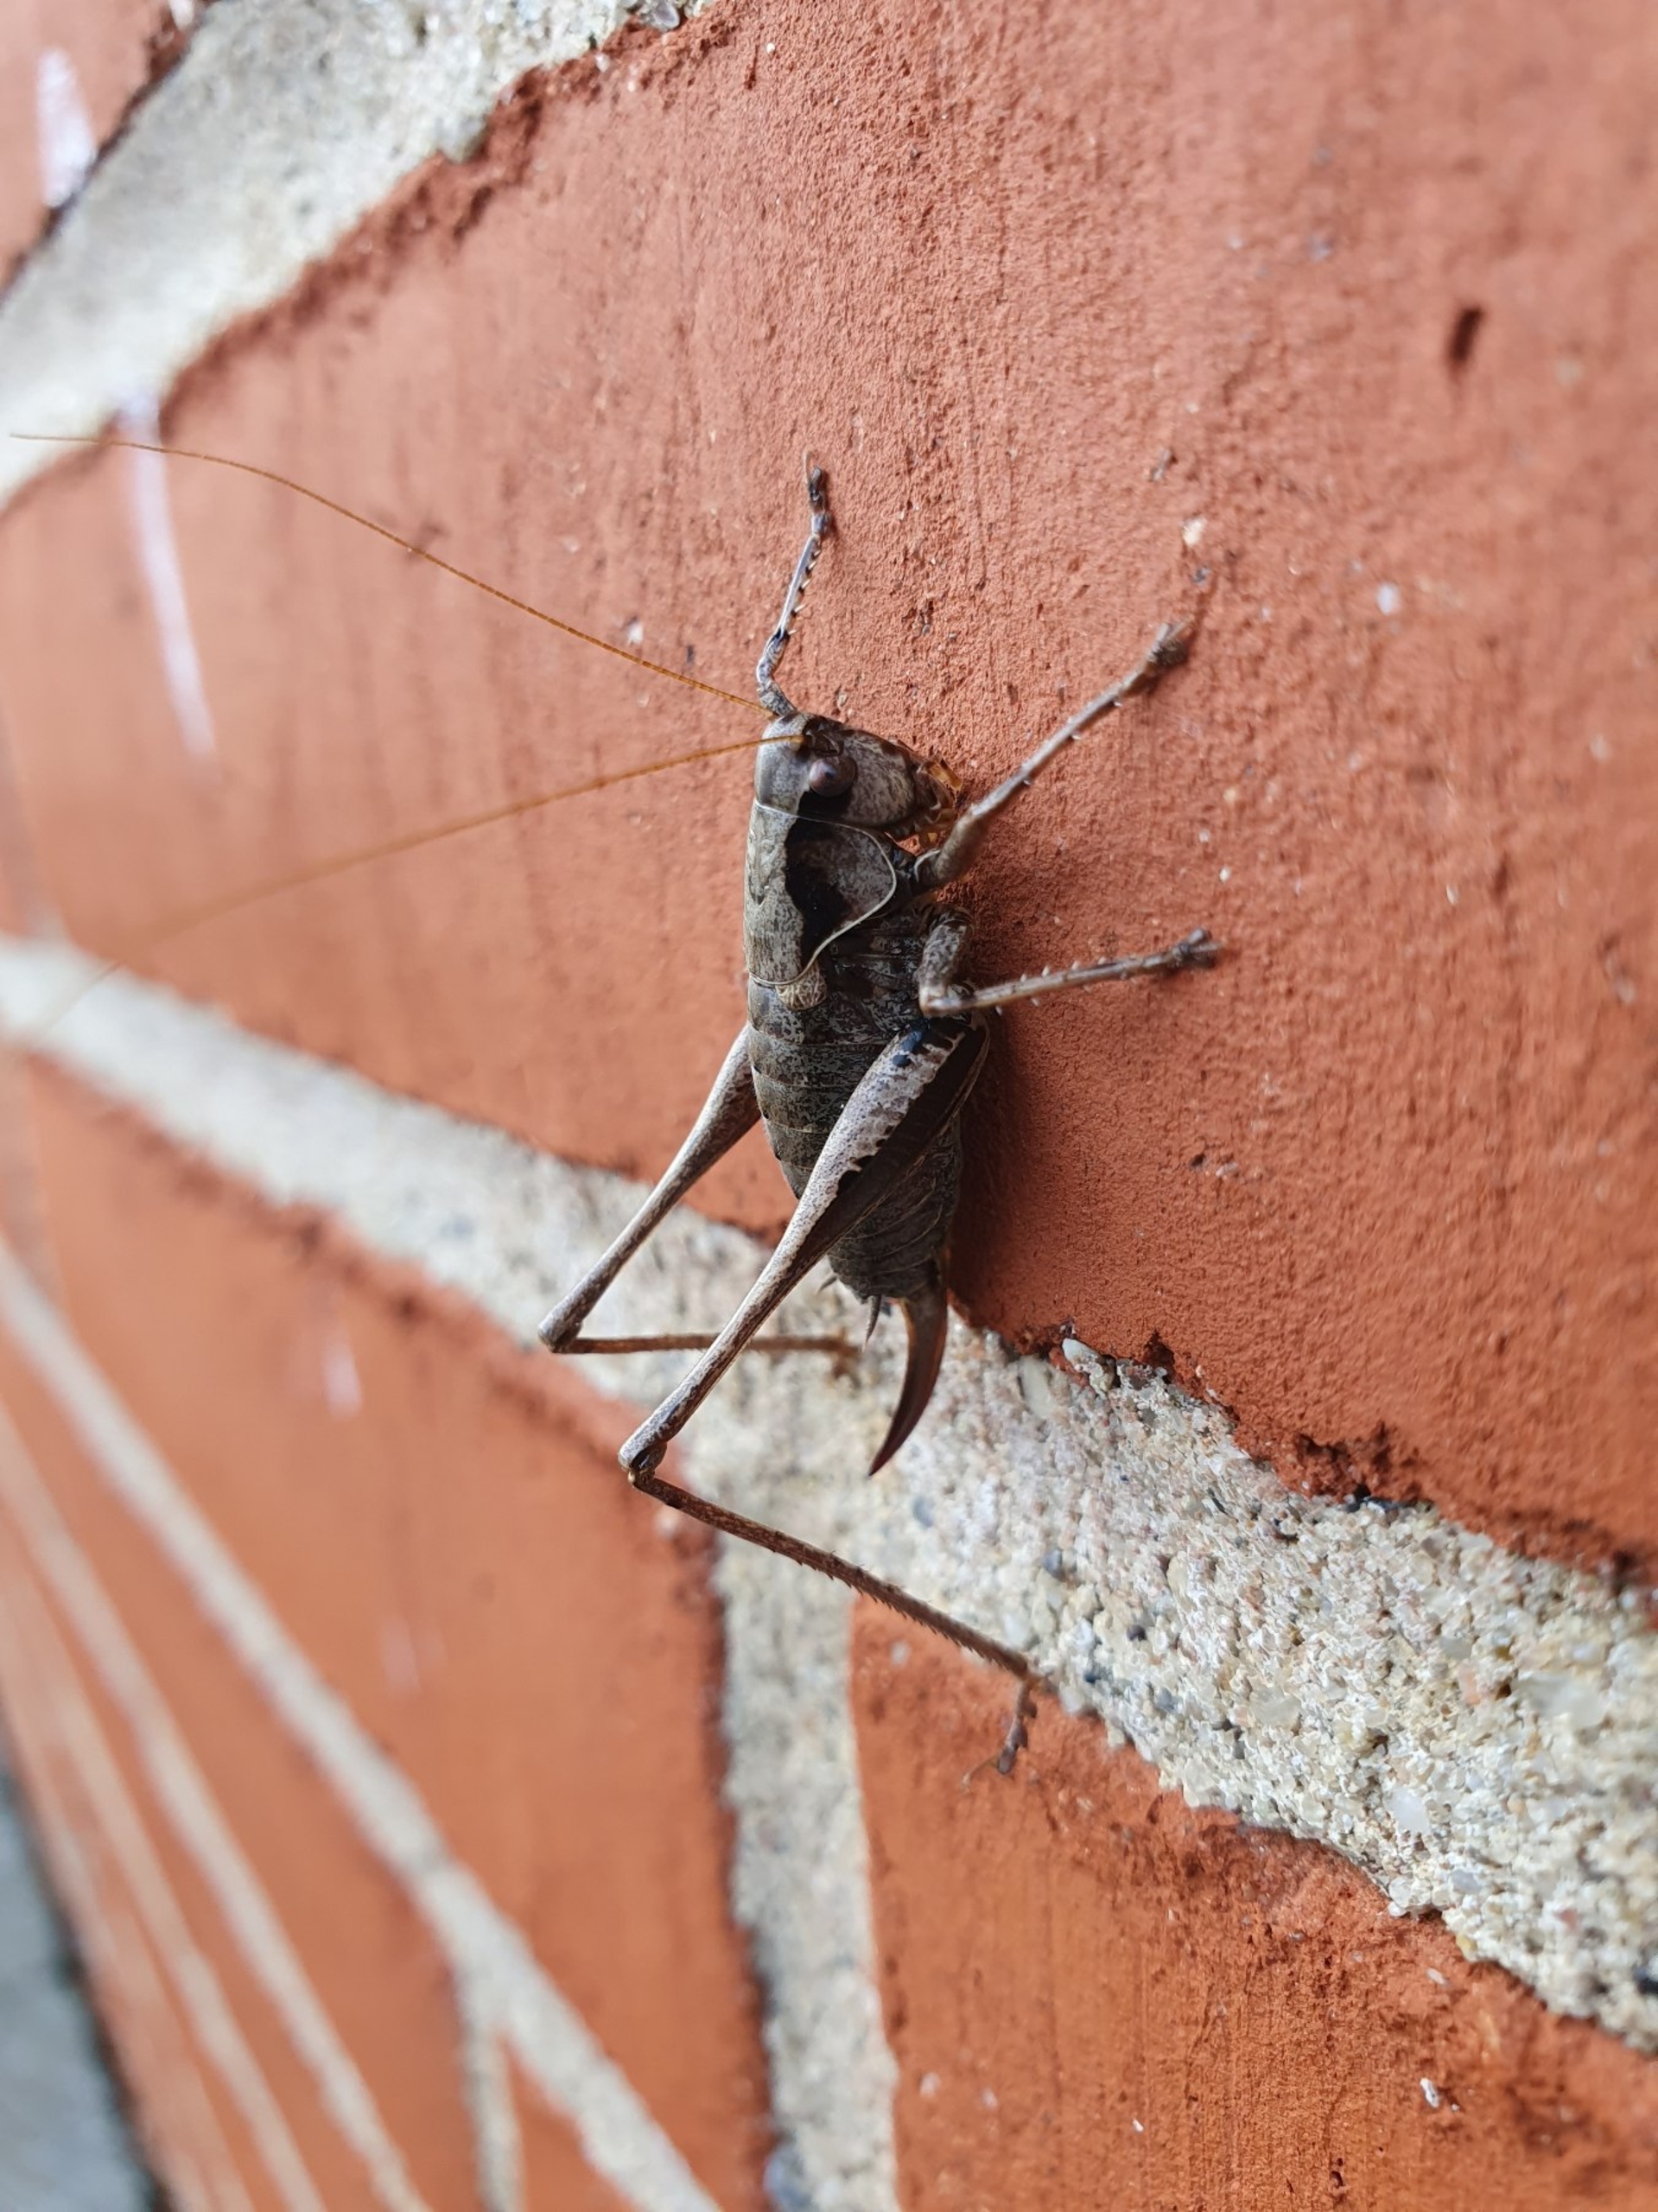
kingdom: Animalia
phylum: Arthropoda
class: Insecta
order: Orthoptera
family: Tettigoniidae
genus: Pholidoptera
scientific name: Pholidoptera griseoaptera
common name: Buskgræshoppe
